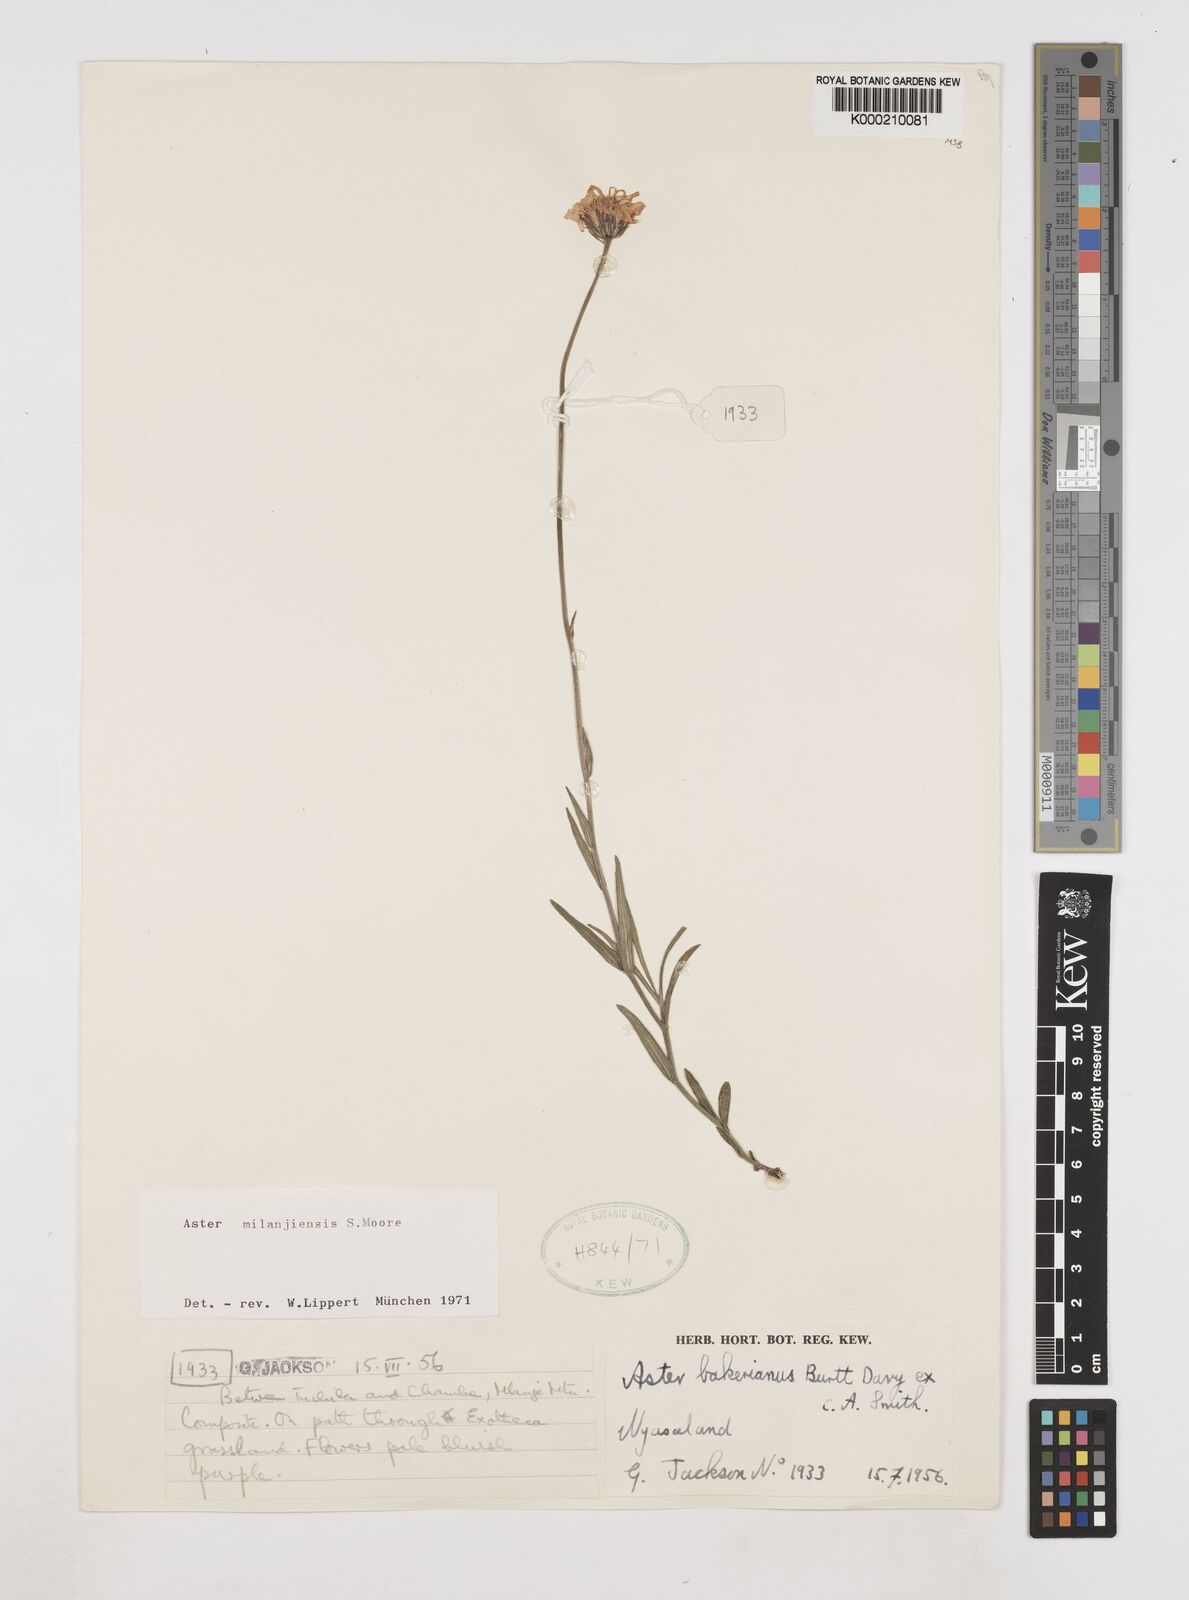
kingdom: Plantae
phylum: Tracheophyta
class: Magnoliopsida
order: Asterales
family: Asteraceae
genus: Afroaster
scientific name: Afroaster milanjiensis
